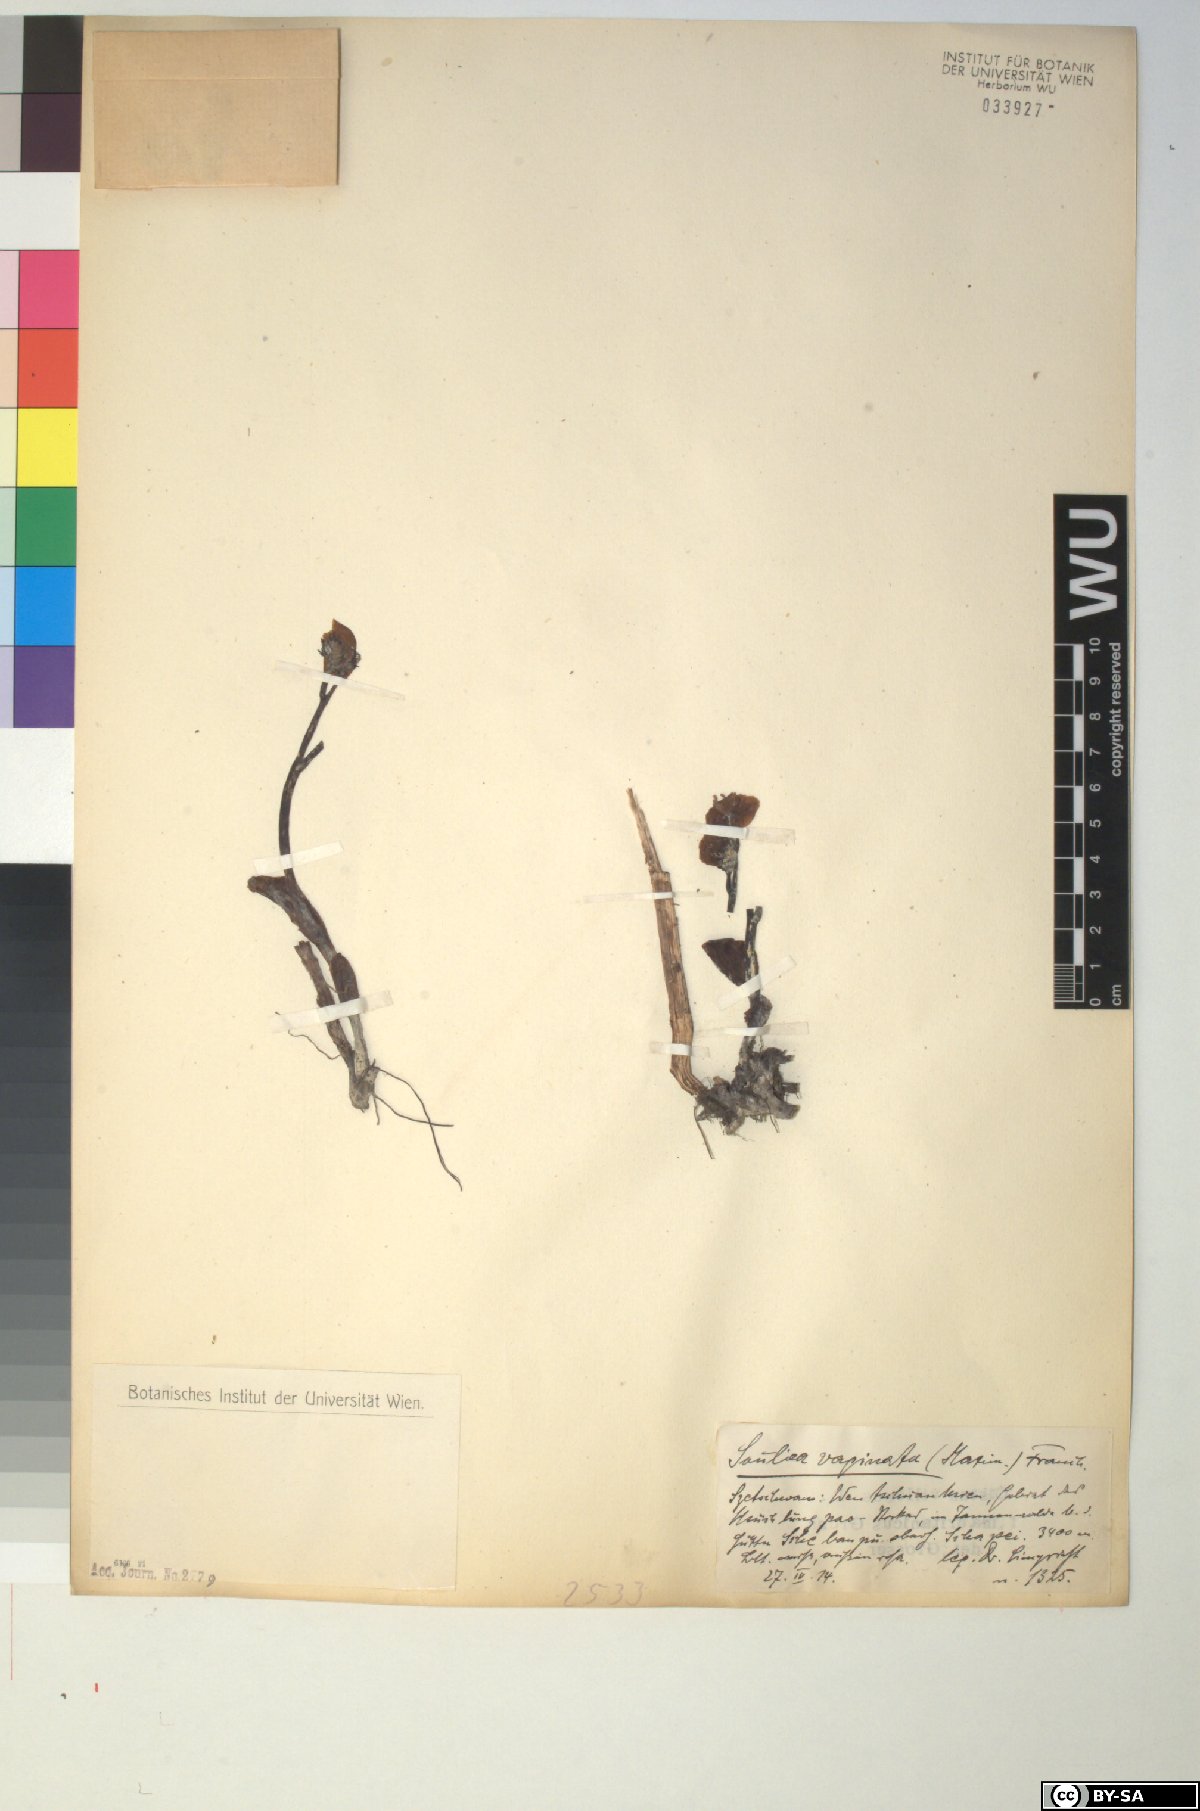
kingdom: Plantae
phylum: Tracheophyta
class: Magnoliopsida
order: Ranunculales
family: Ranunculaceae
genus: Actaea
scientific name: Actaea vaginata
